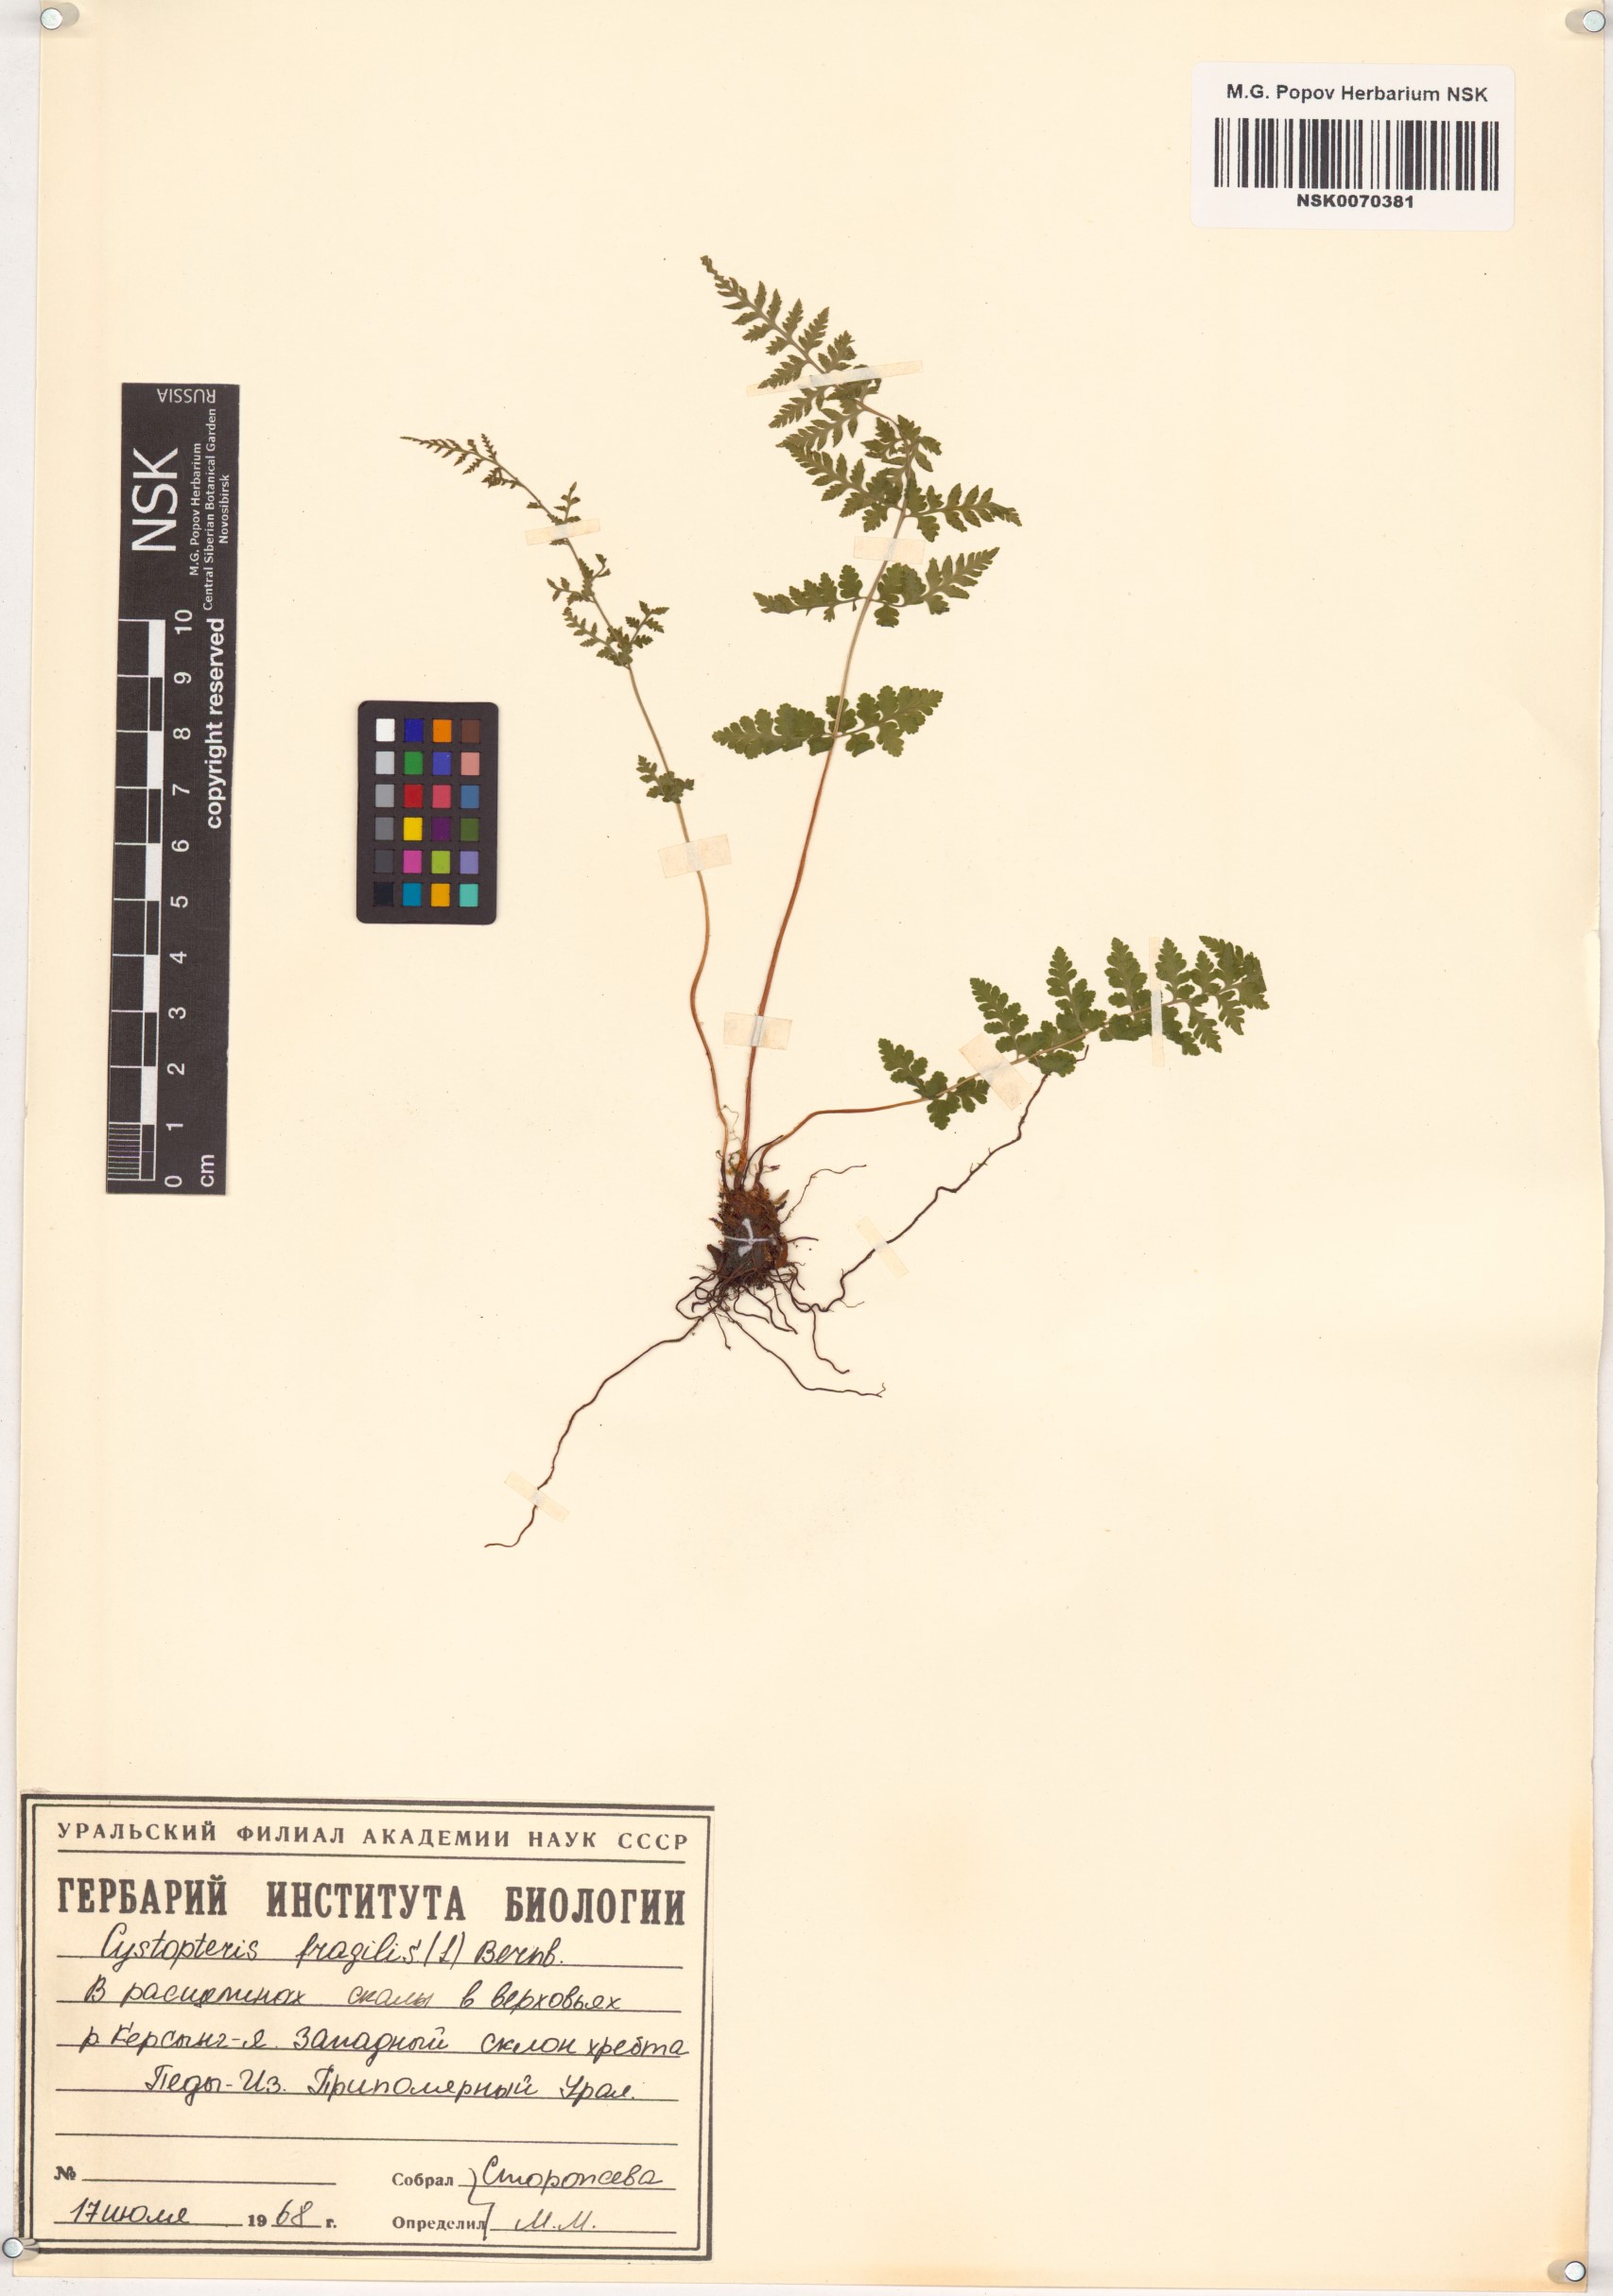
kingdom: Plantae
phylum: Tracheophyta
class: Polypodiopsida
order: Polypodiales
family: Cystopteridaceae
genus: Cystopteris
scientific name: Cystopteris fragilis
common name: Brittle bladder fern
